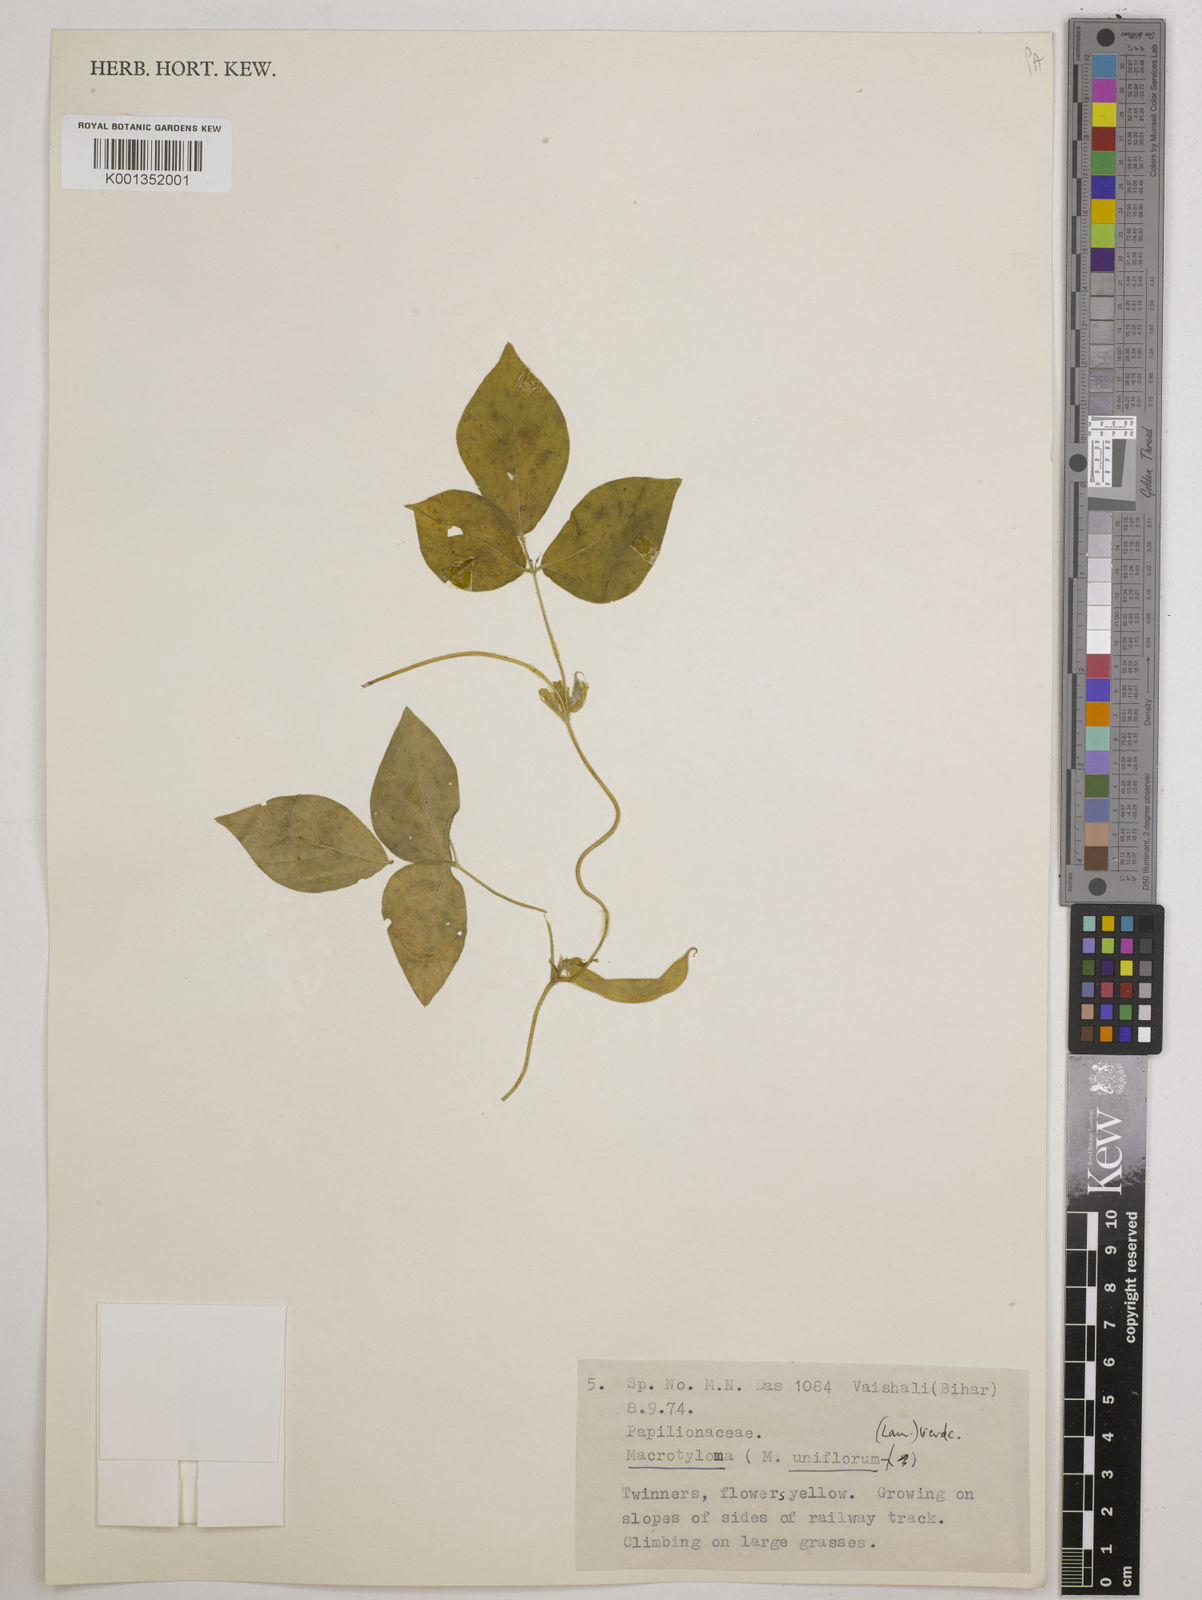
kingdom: Plantae
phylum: Tracheophyta
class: Magnoliopsida
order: Fabales
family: Fabaceae
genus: Macrotyloma
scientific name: Macrotyloma uniflorum
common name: Horse gram
